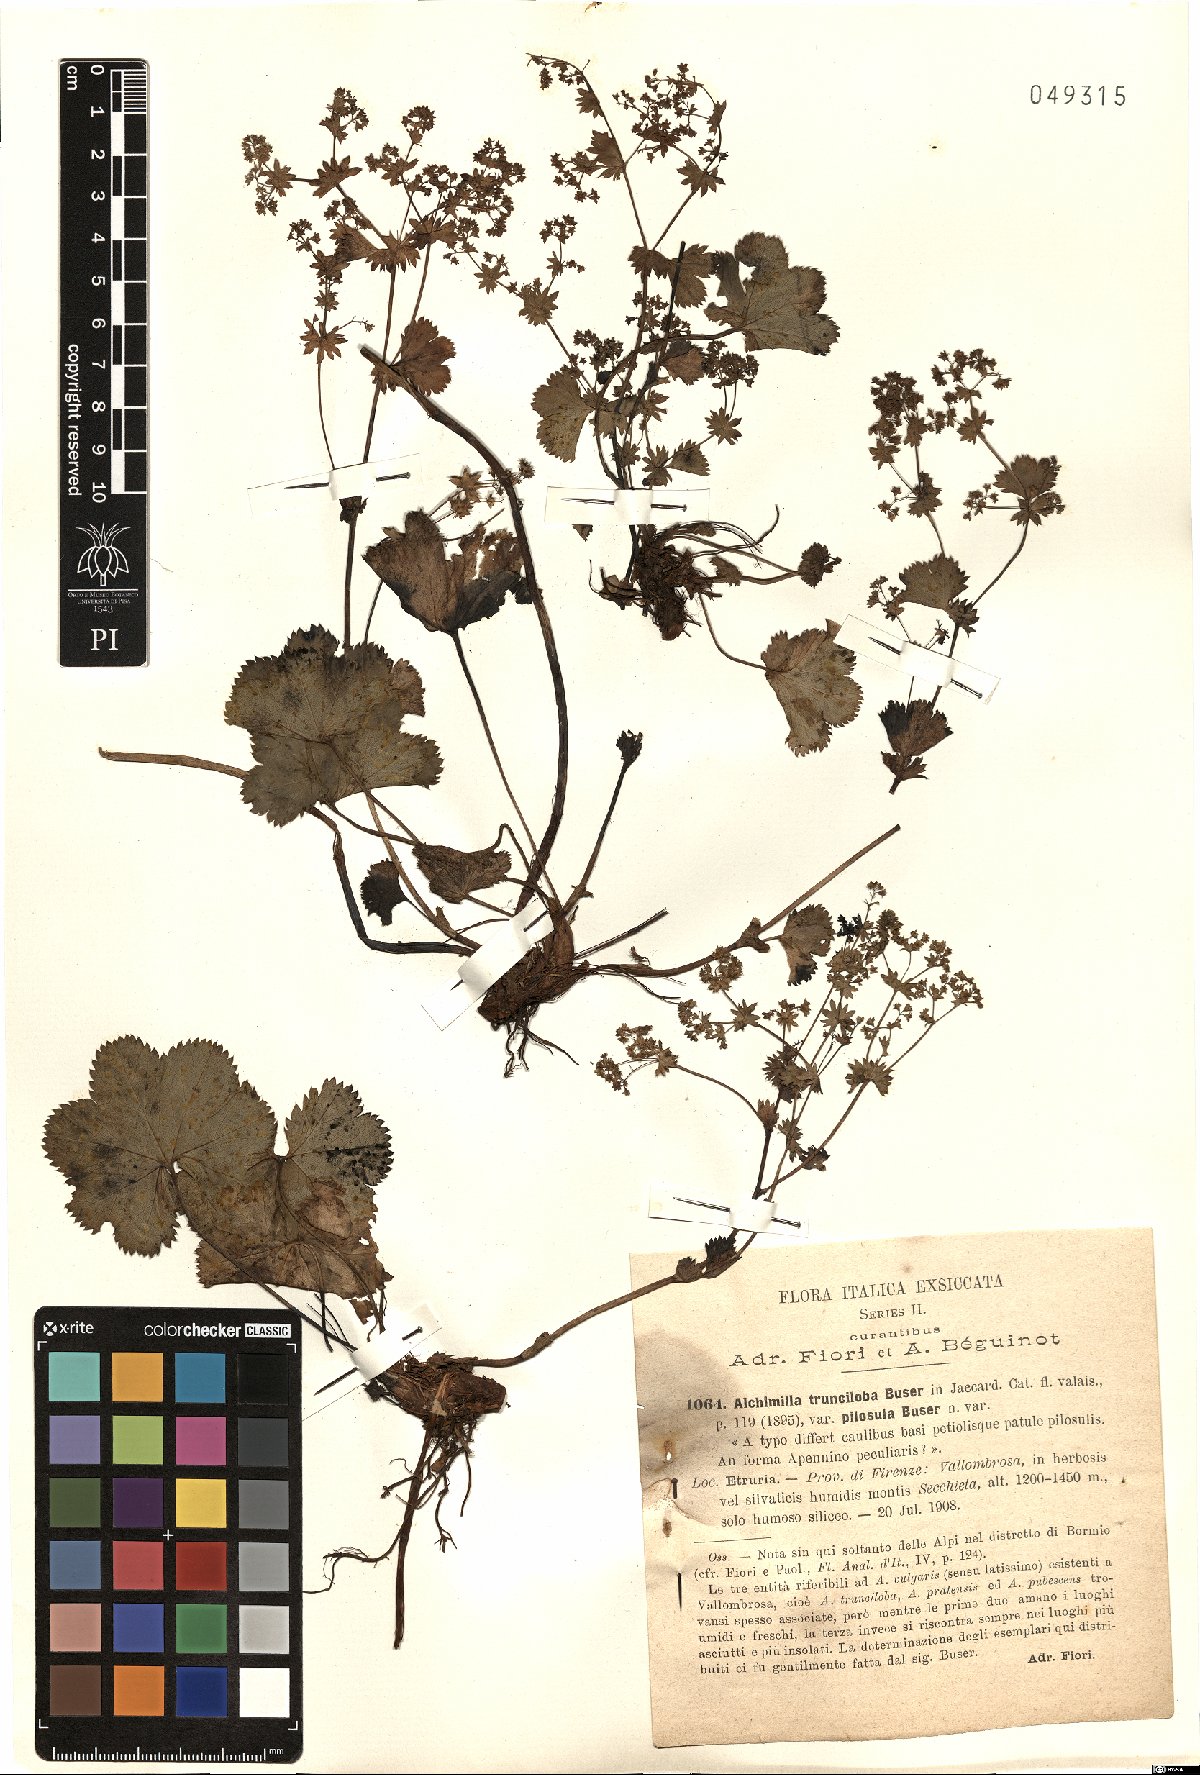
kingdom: Plantae
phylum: Tracheophyta
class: Magnoliopsida
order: Rosales
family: Rosaceae
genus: Alchemilla
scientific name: Alchemilla cataractarum
